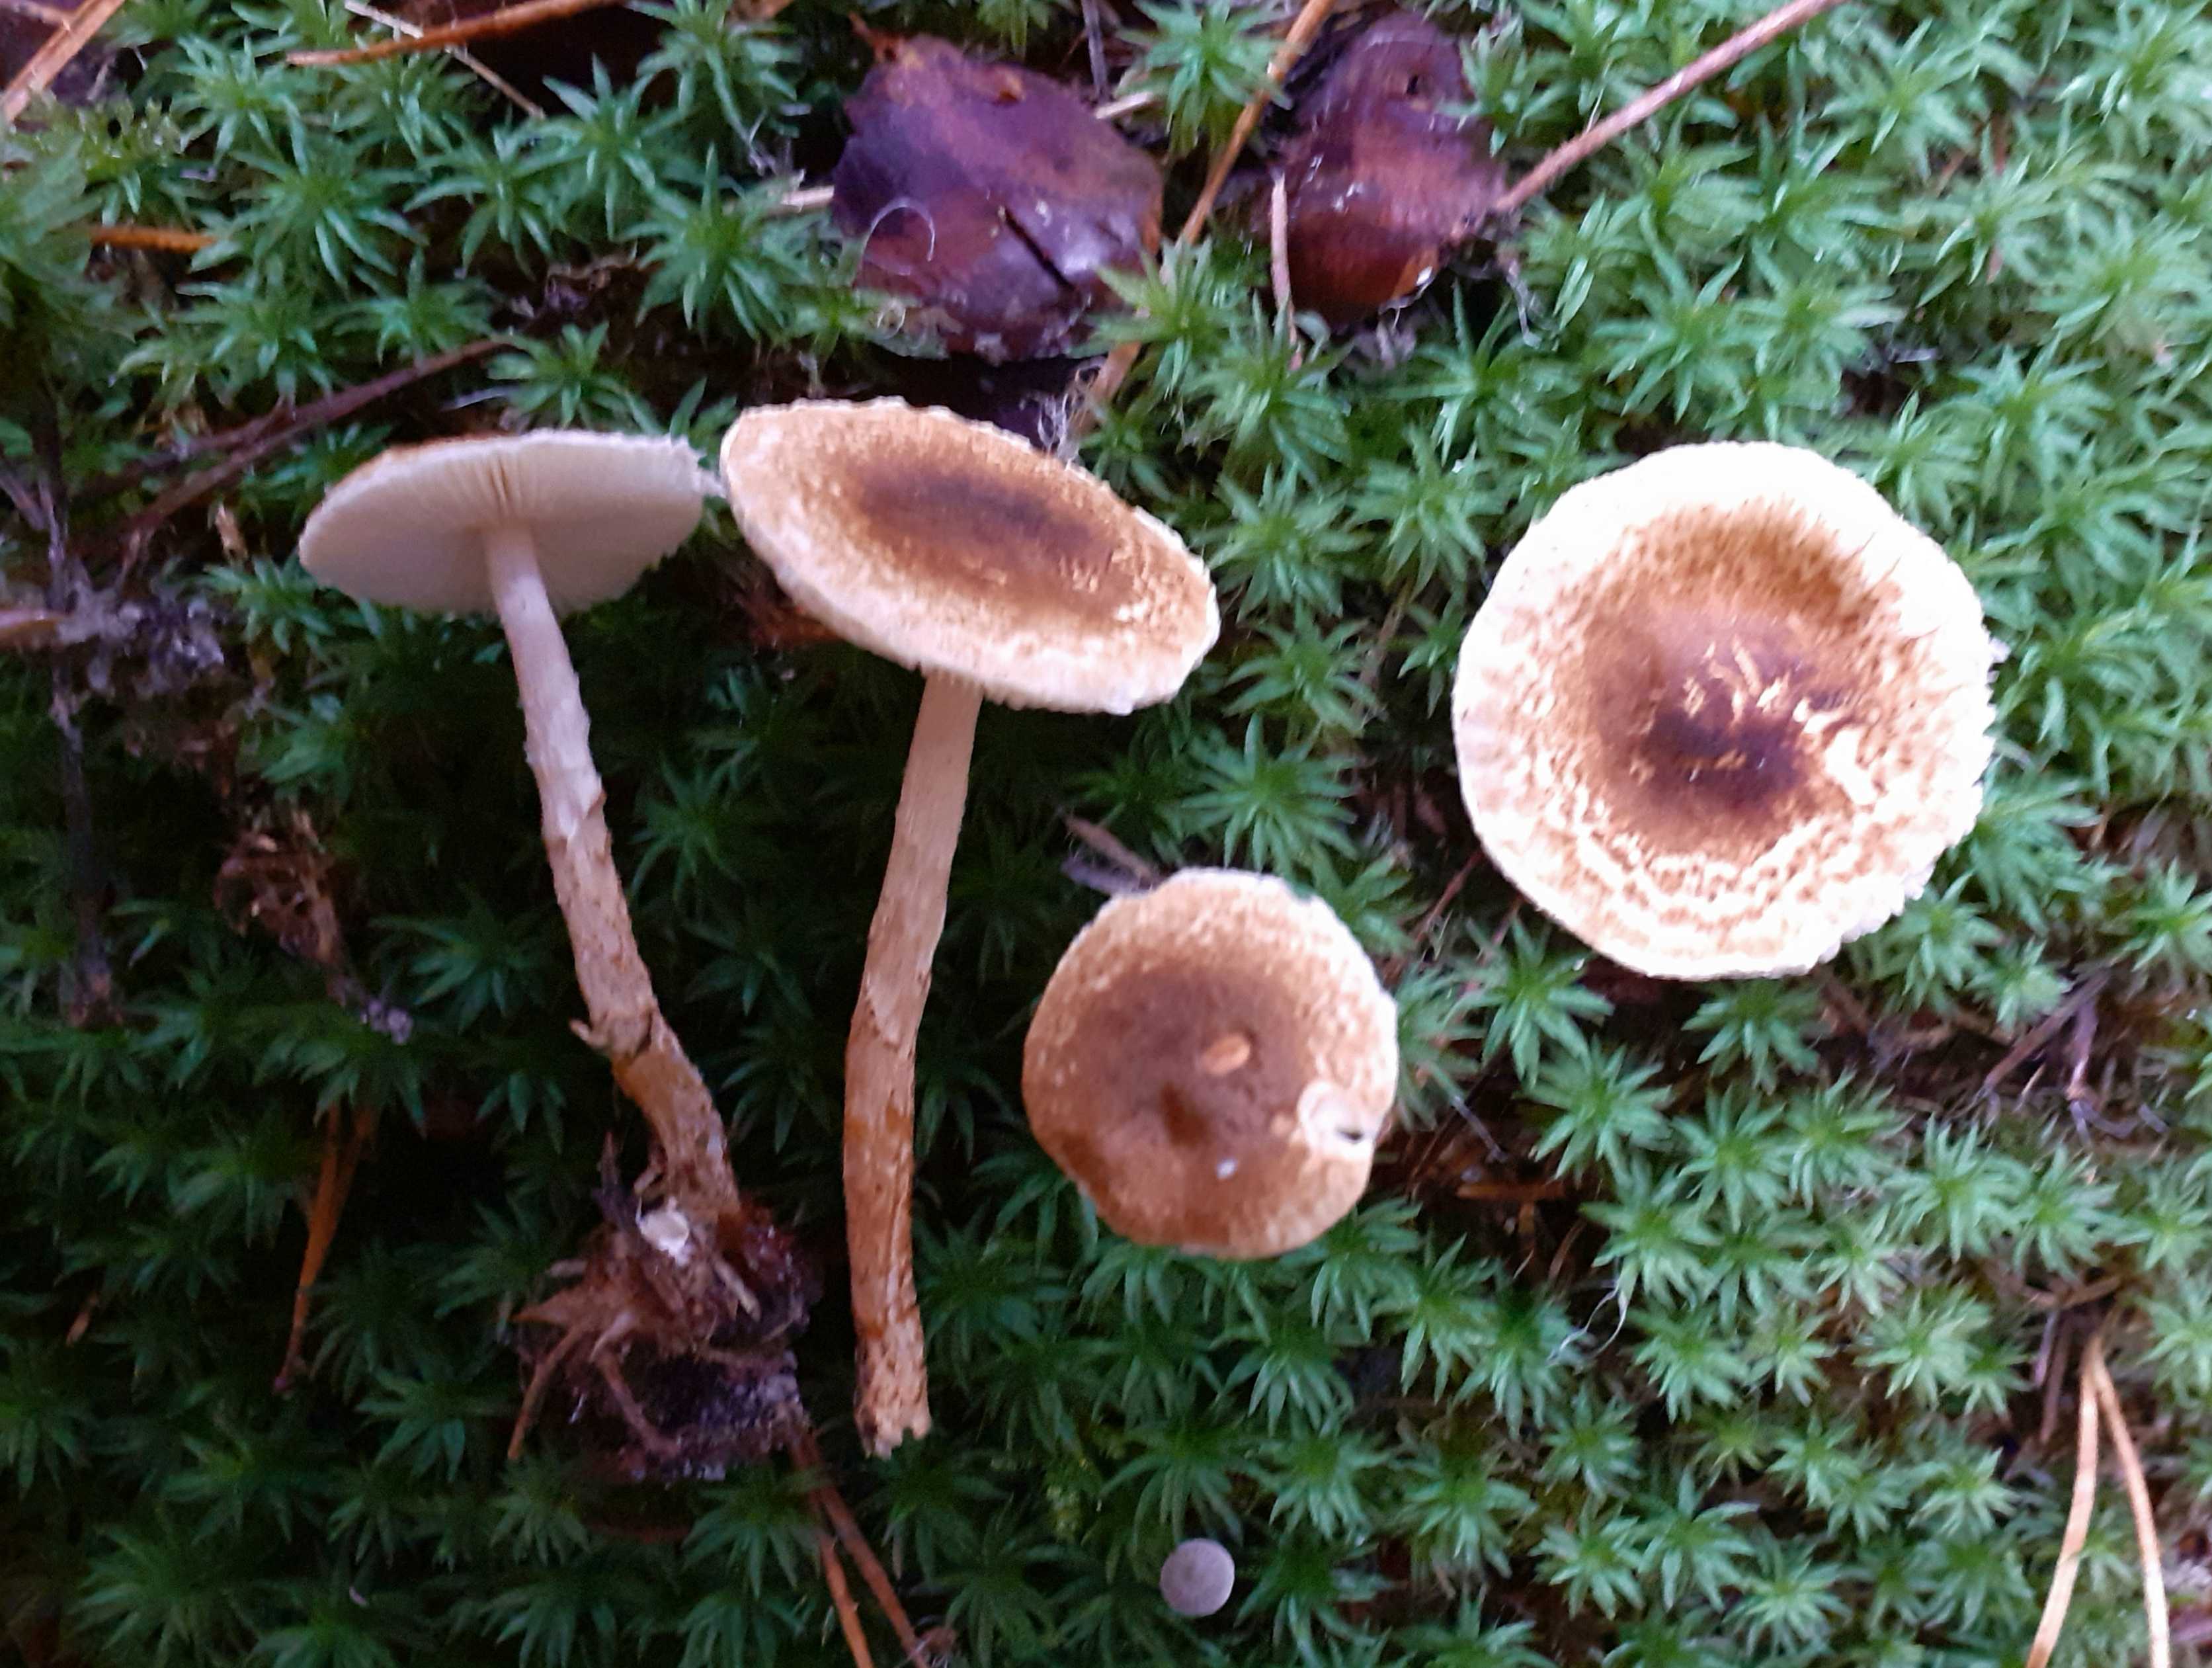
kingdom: Fungi
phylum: Basidiomycota
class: Agaricomycetes
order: Agaricales
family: Agaricaceae
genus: Lepiota
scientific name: Lepiota castanea
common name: kastaniebrun parasolhat
